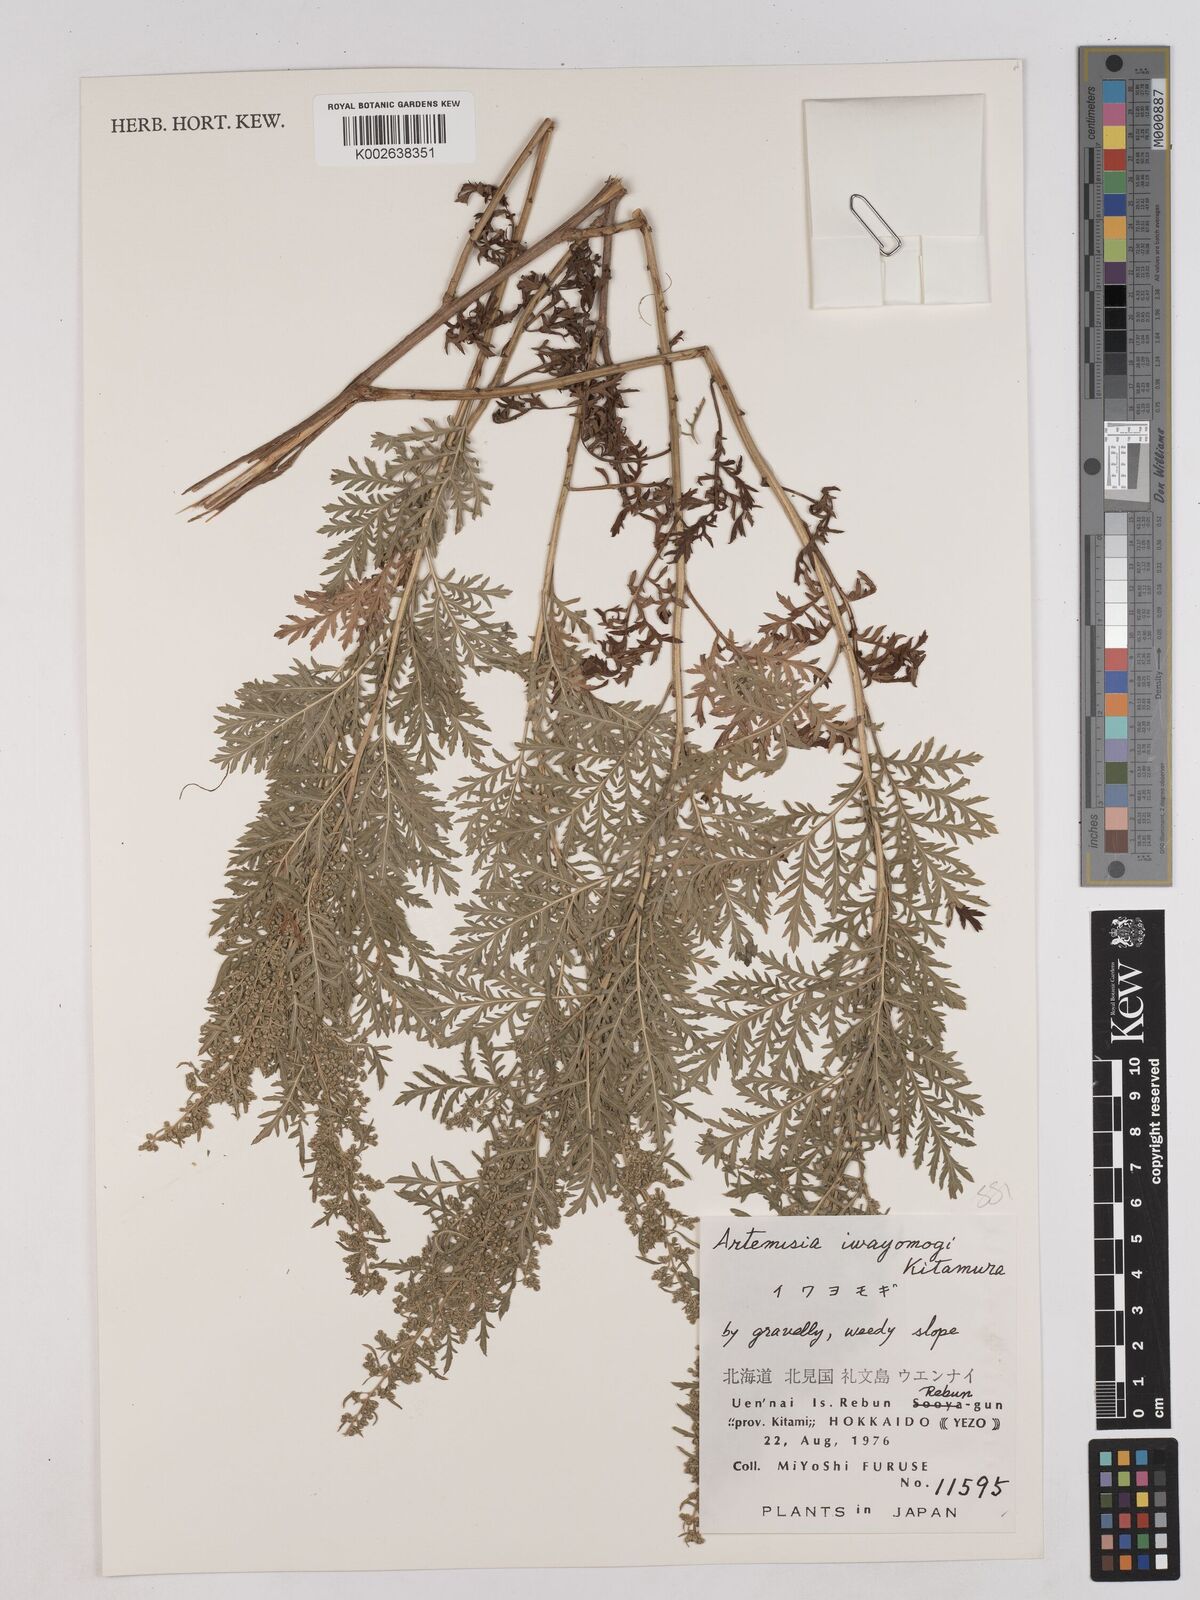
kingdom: Plantae
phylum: Tracheophyta
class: Magnoliopsida
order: Asterales
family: Asteraceae
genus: Artemisia
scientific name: Artemisia gmelinii
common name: Gmelin's wormwood
